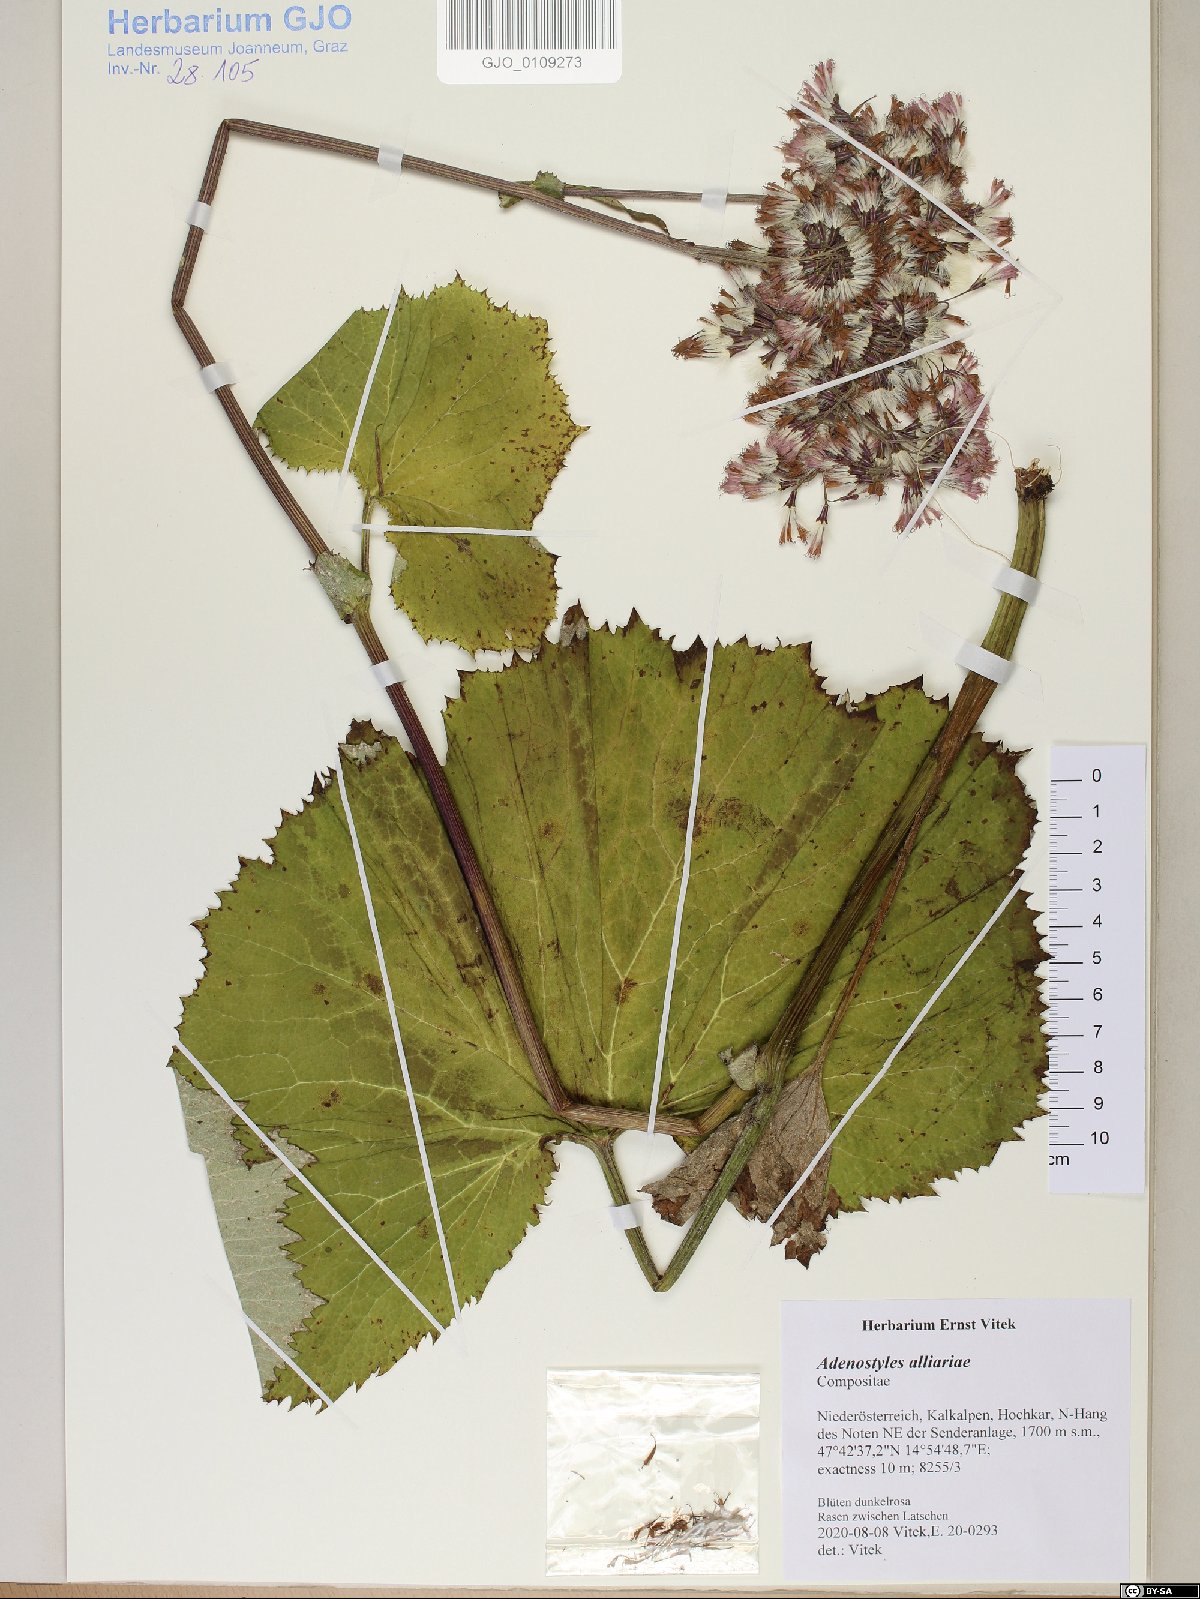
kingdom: Plantae
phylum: Tracheophyta
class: Magnoliopsida
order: Asterales
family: Asteraceae
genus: Adenostyles
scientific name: Adenostyles alliariae
